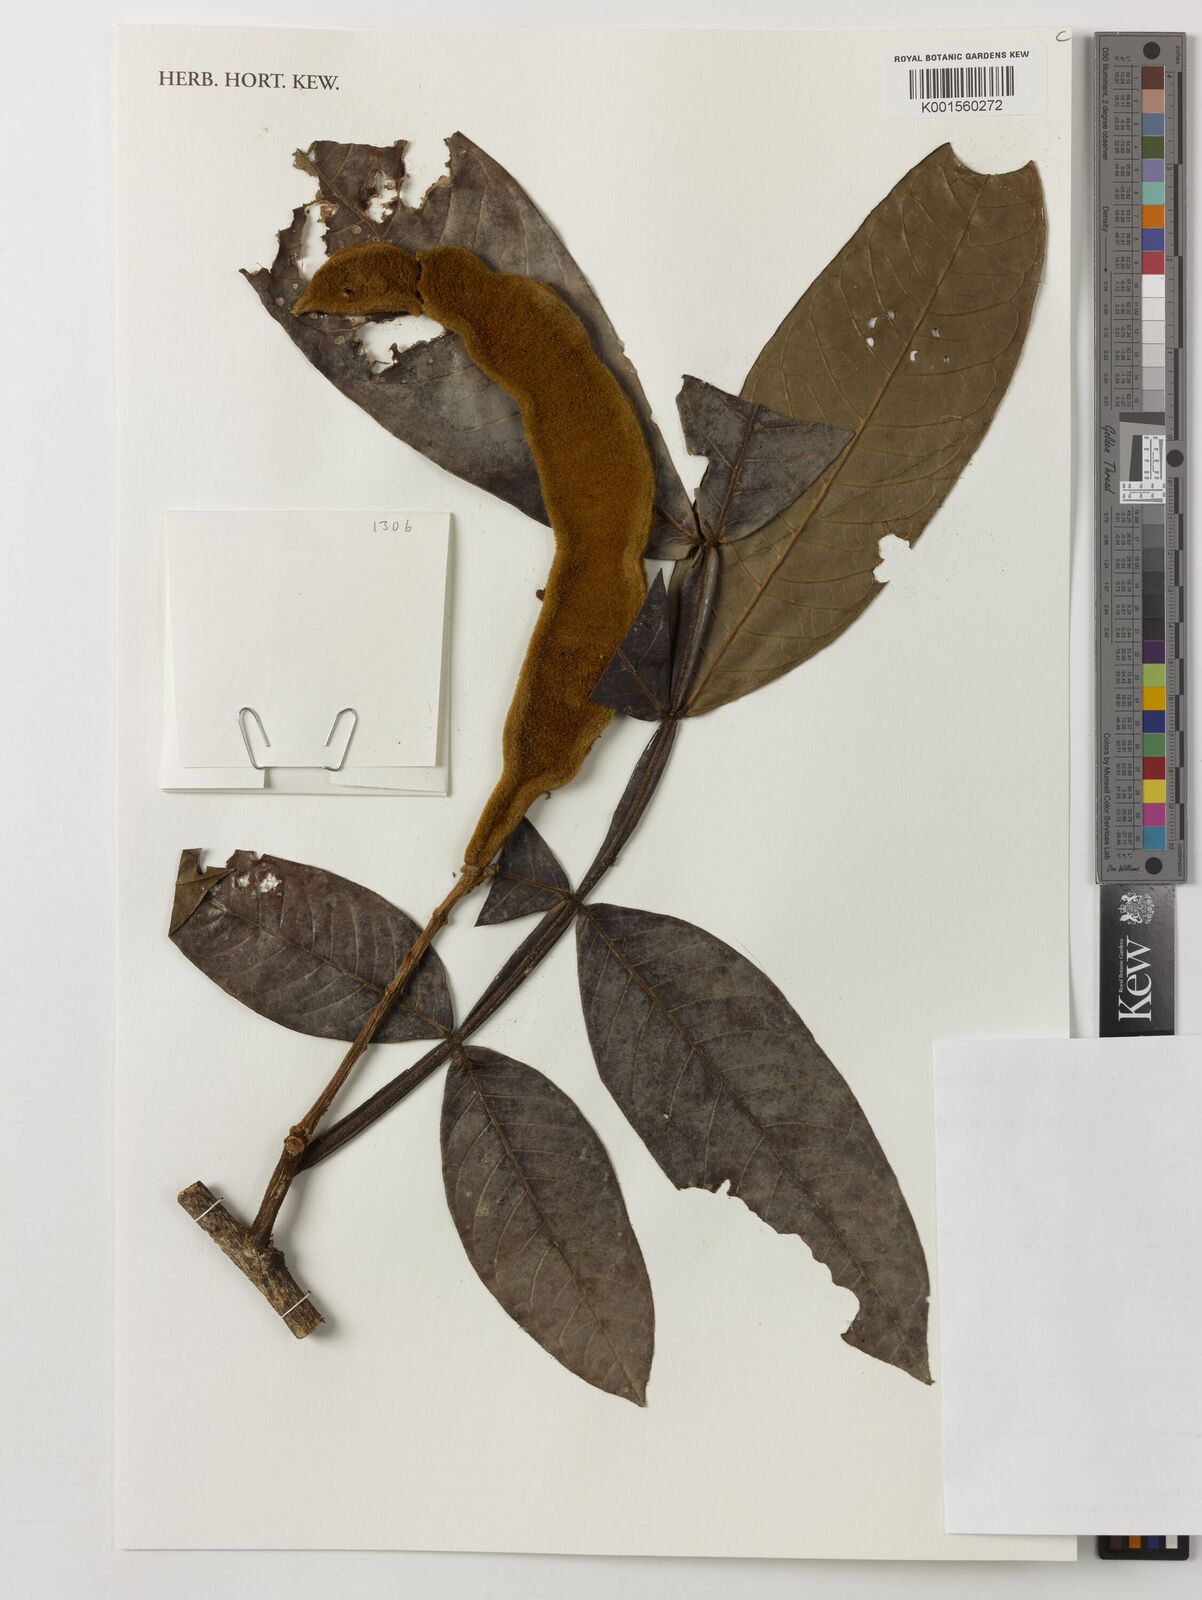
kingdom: Plantae
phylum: Tracheophyta
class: Magnoliopsida
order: Fabales
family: Fabaceae
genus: Inga
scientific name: Inga crassiflora
